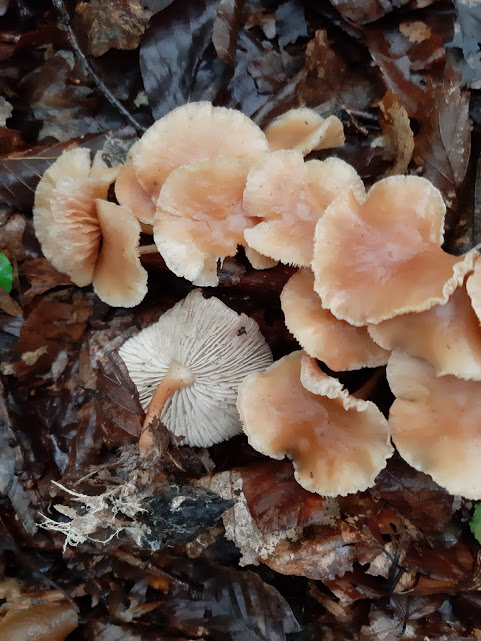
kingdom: Fungi
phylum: Basidiomycota
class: Agaricomycetes
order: Agaricales
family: Omphalotaceae
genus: Gymnopus
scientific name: Gymnopus dryophilus
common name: løv-fladhat
